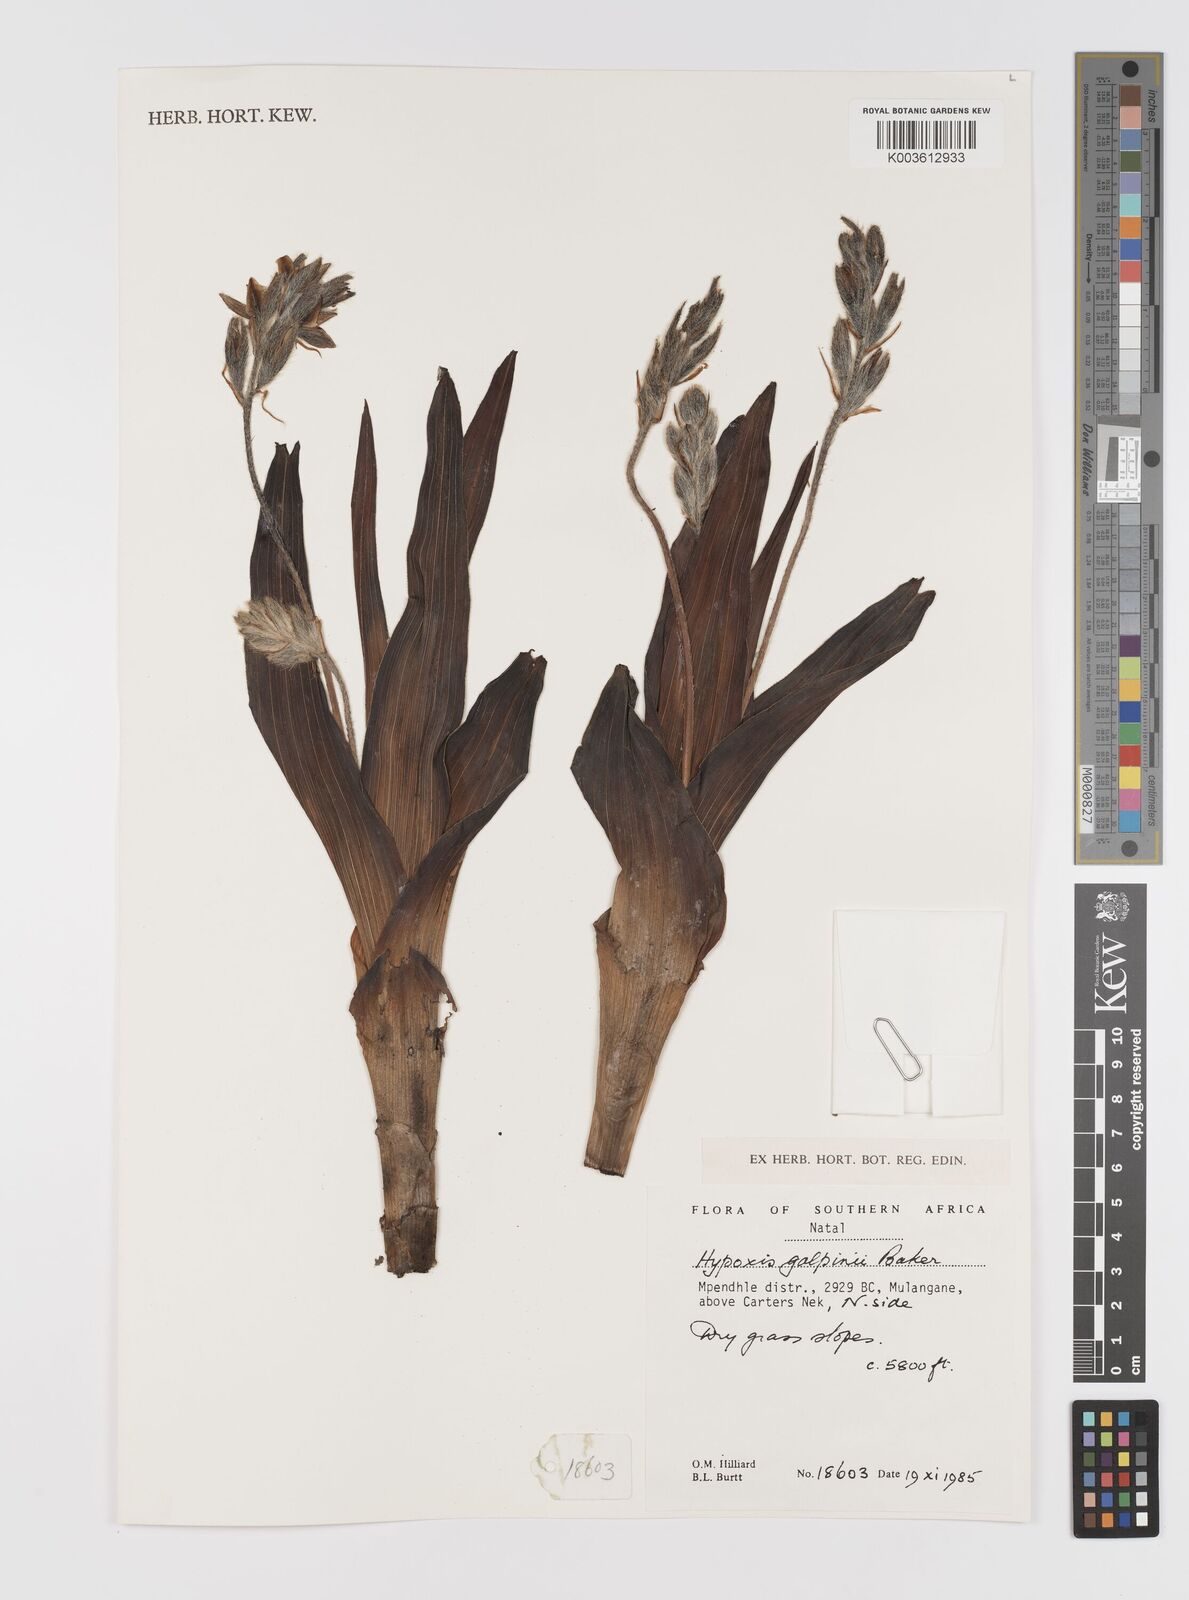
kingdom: Plantae
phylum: Tracheophyta
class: Liliopsida
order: Asparagales
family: Hypoxidaceae
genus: Hypoxis
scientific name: Hypoxis galpinii
